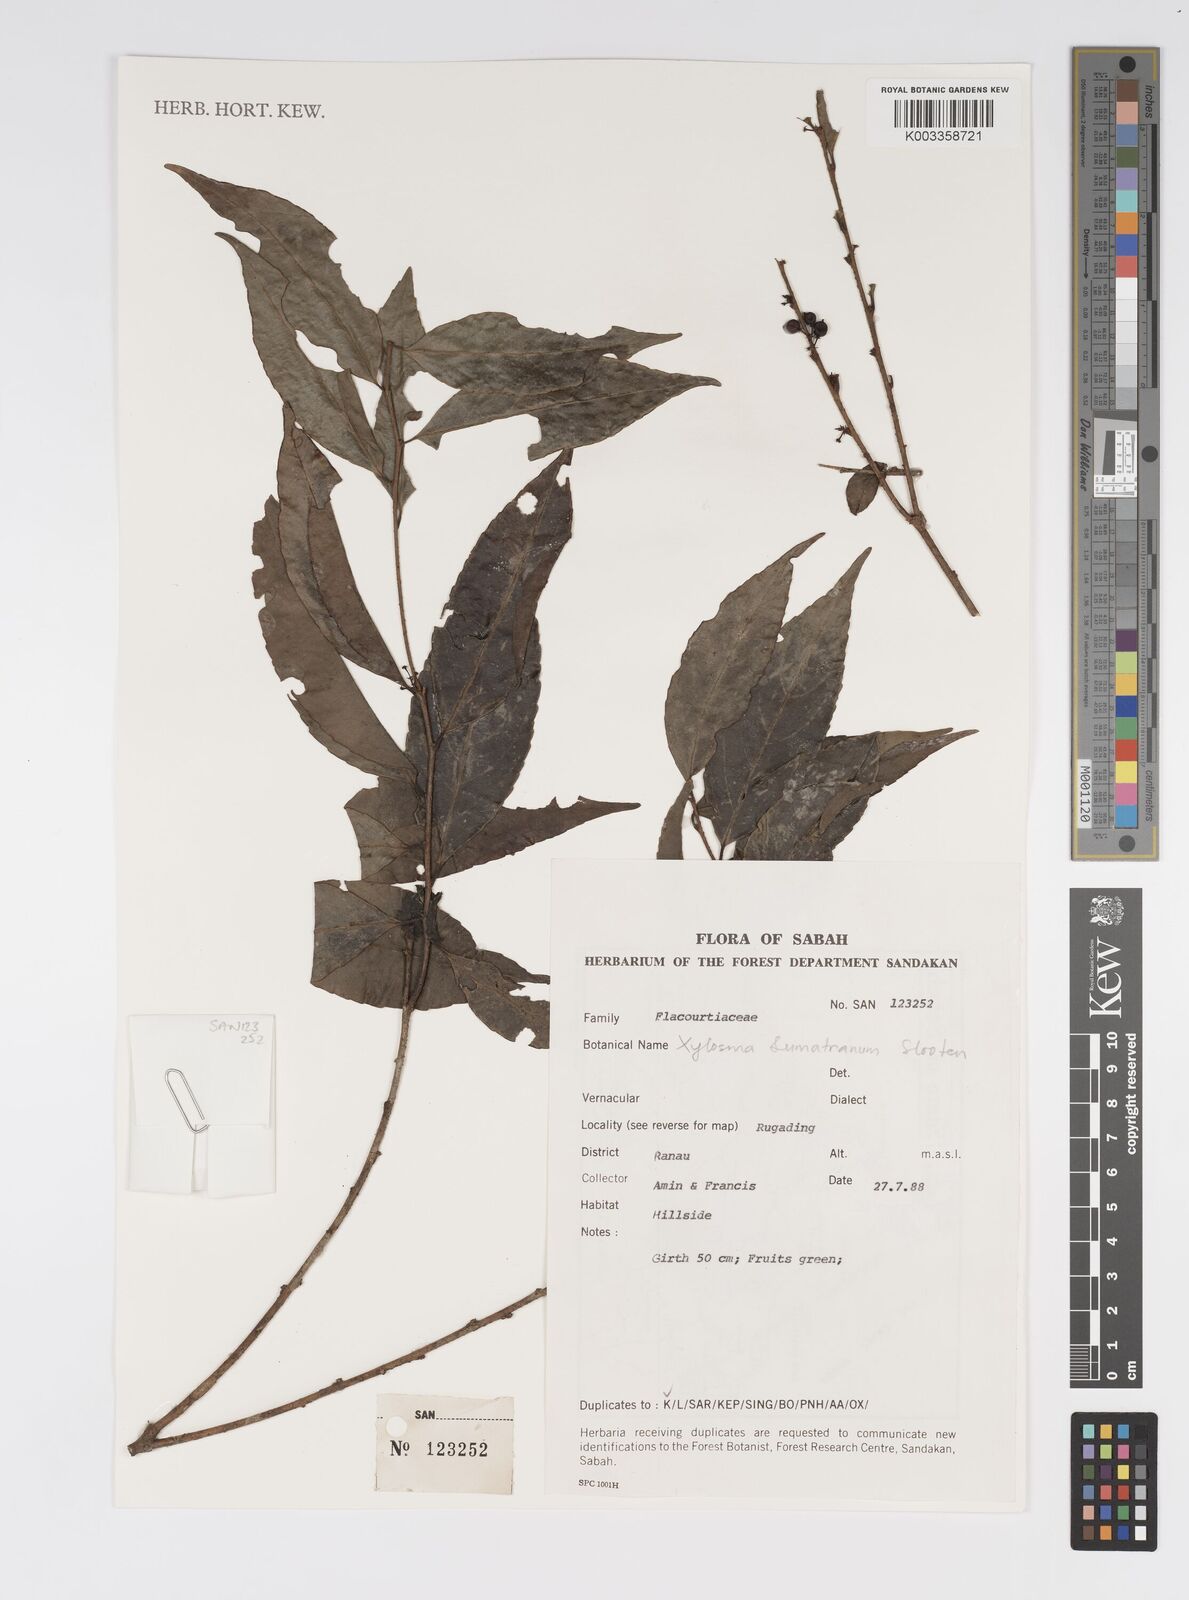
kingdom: Plantae
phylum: Tracheophyta
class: Magnoliopsida
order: Malpighiales
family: Salicaceae
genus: Xylosma
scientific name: Xylosma sumatrana
